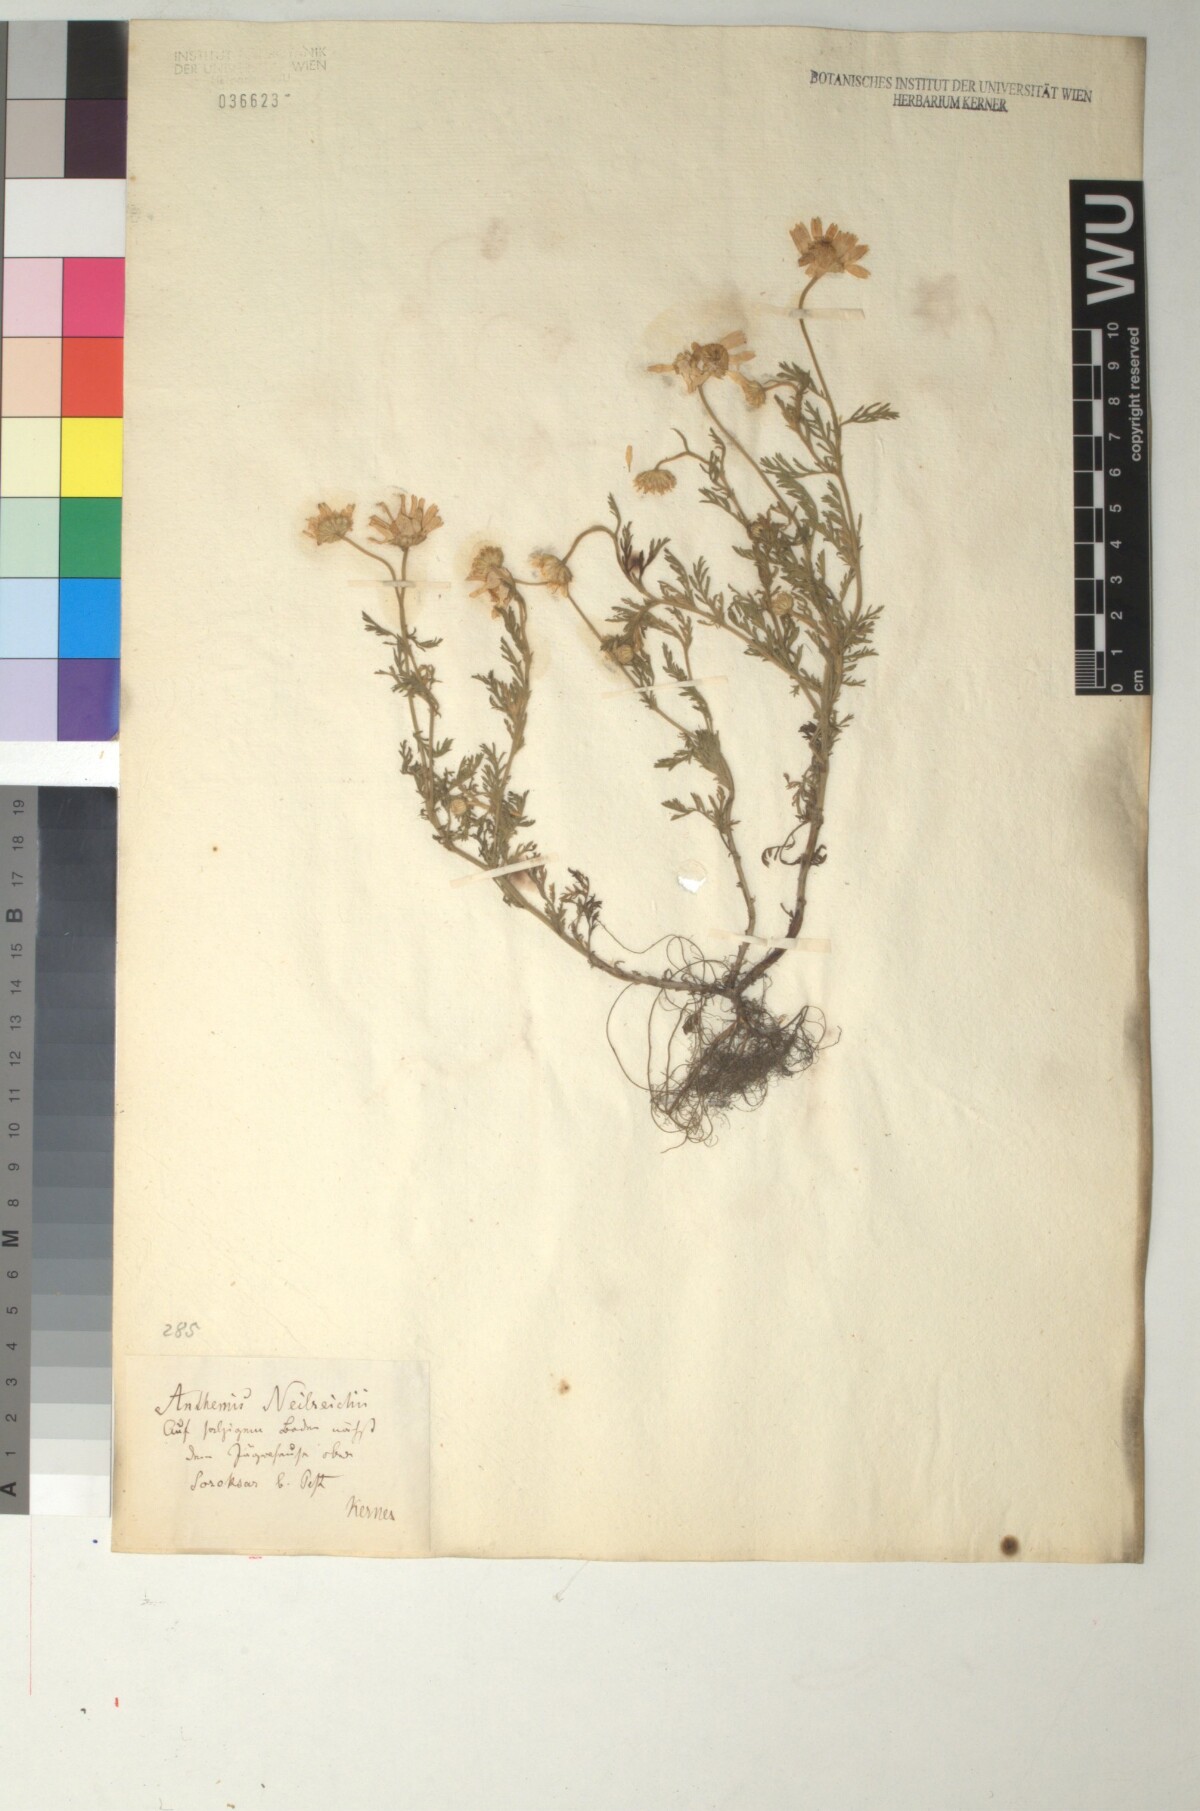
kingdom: Plantae
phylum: Tracheophyta
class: Magnoliopsida
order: Asterales
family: Asteraceae
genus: Anthemis
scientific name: Anthemis ruthenica
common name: Eastern chamomile
